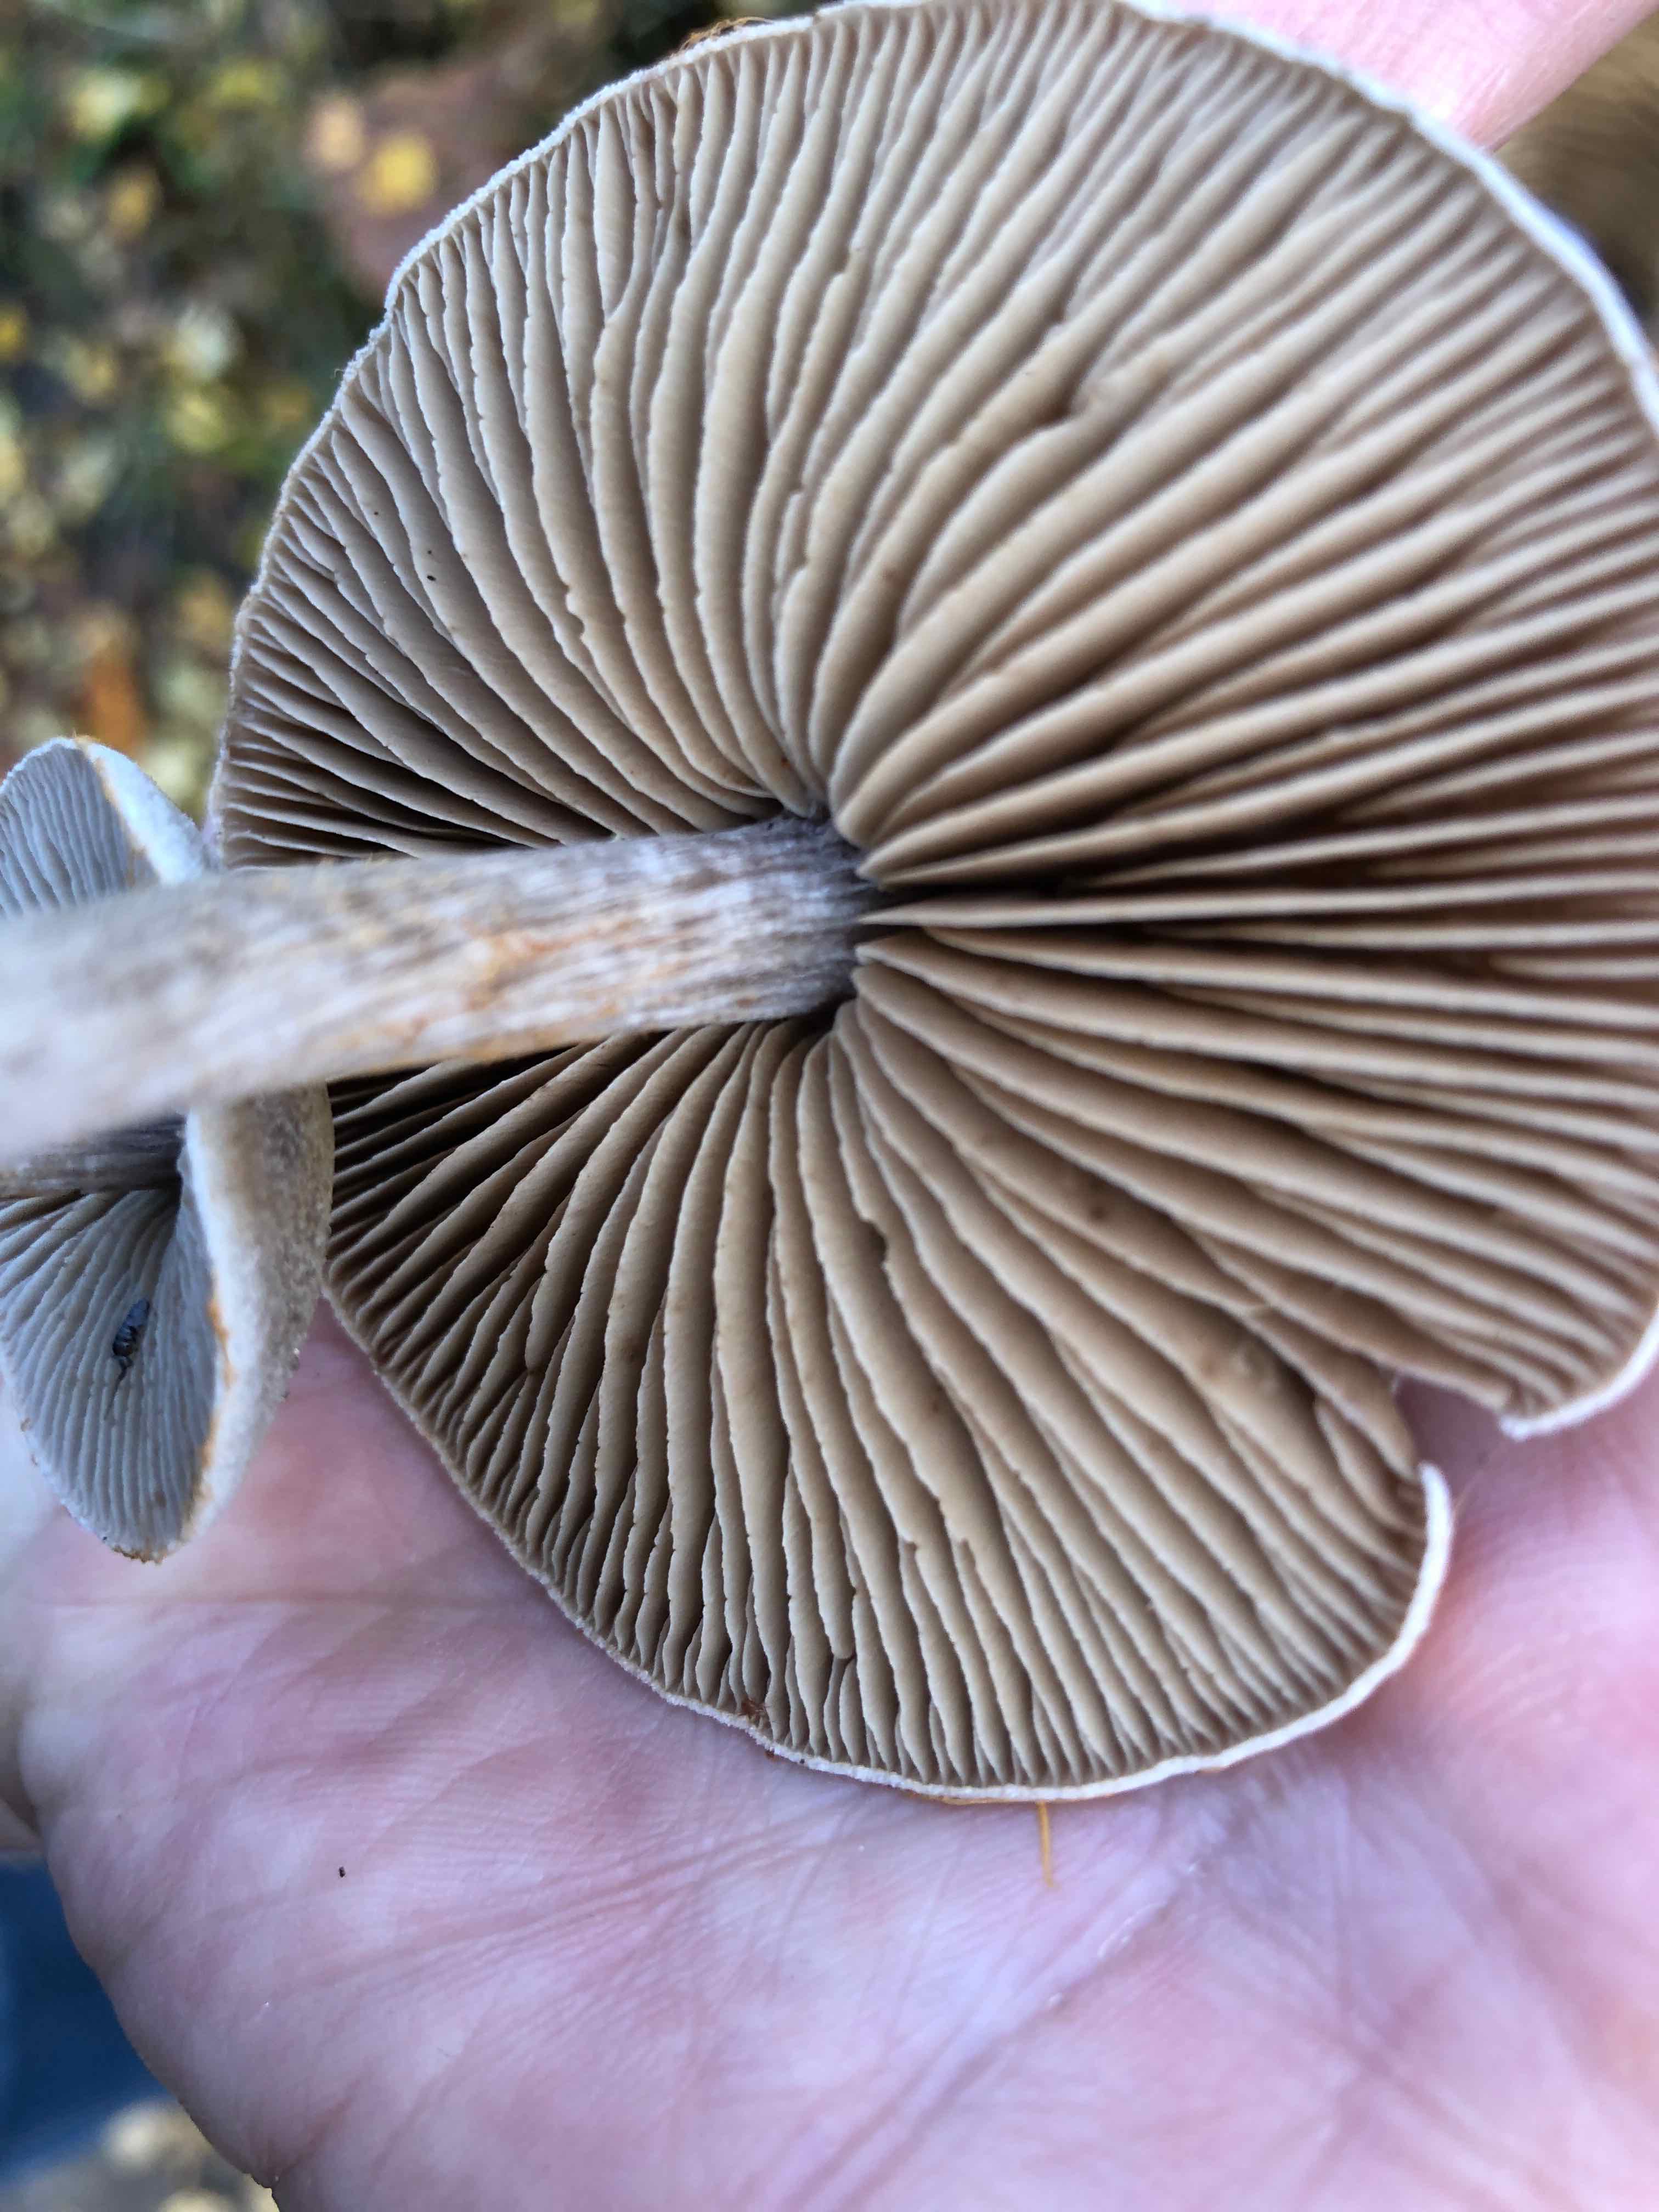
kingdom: Fungi
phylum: Basidiomycota
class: Agaricomycetes
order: Agaricales
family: Cortinariaceae
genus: Cortinarius
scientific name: Cortinarius hemitrichus
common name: hvidfnugget slørhat
